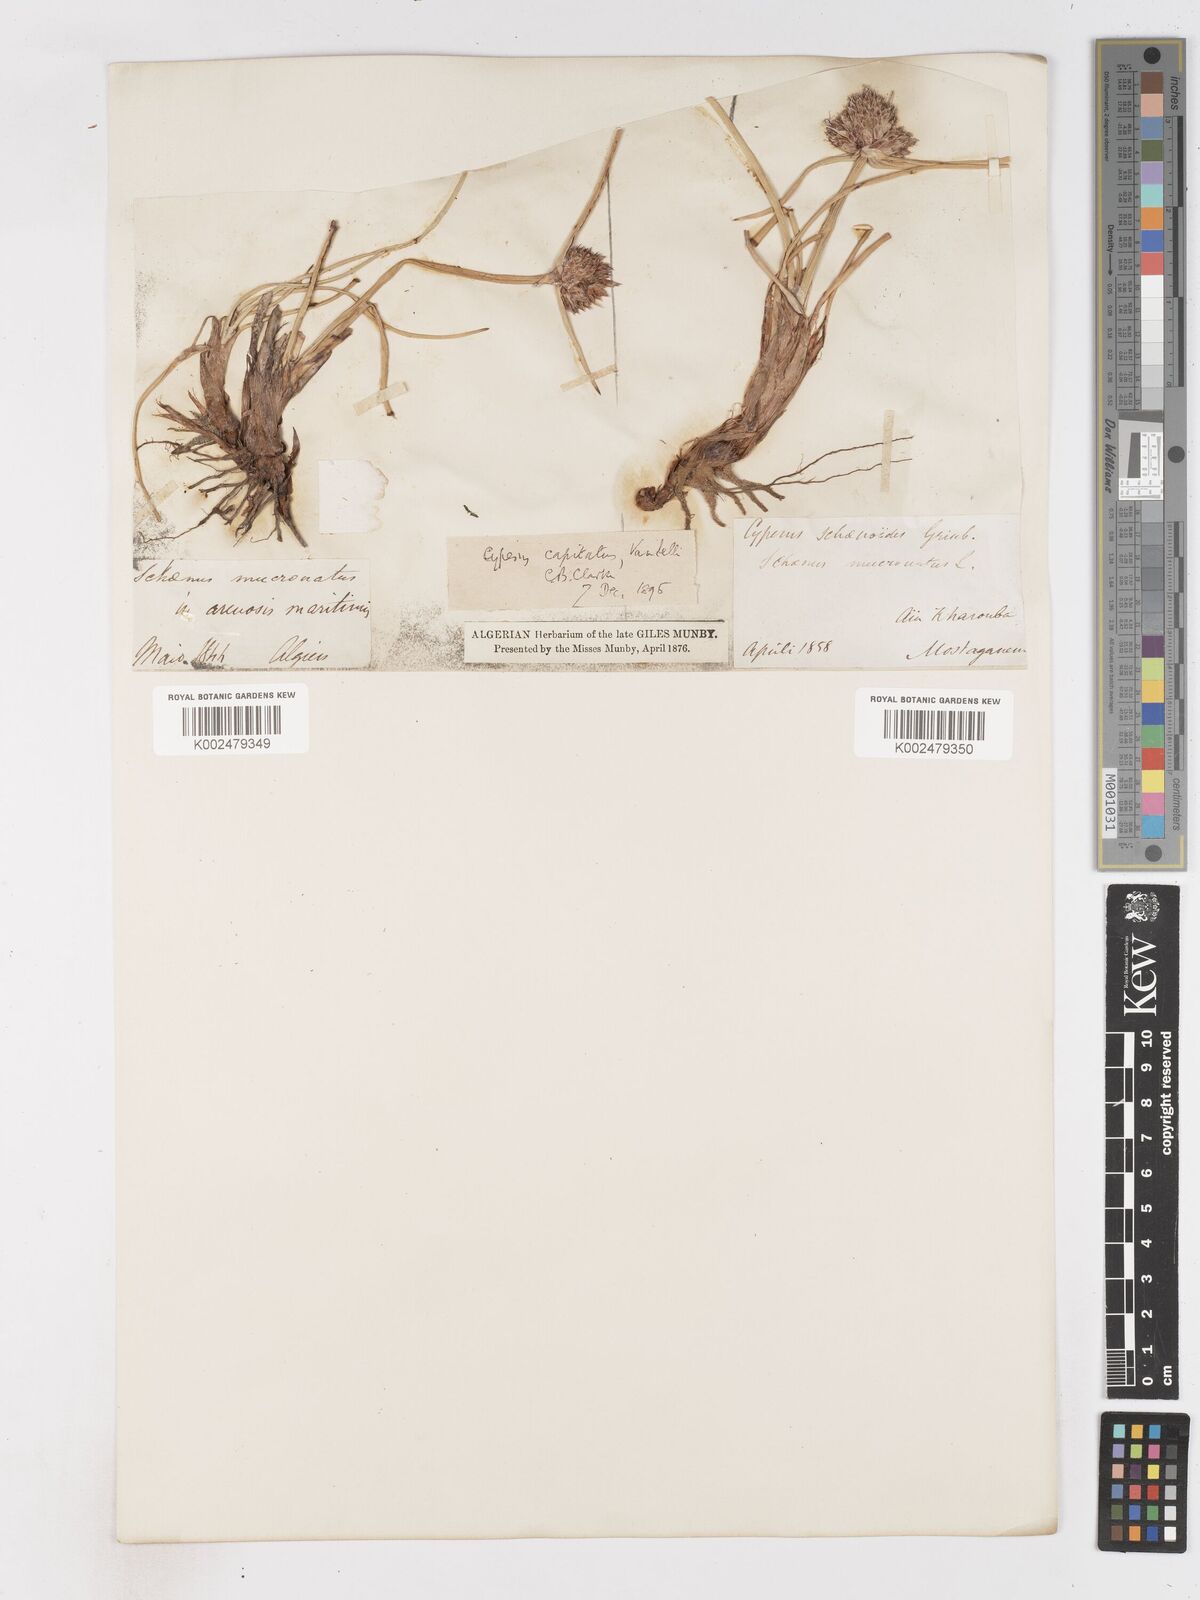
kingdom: Plantae
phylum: Tracheophyta
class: Liliopsida
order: Poales
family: Cyperaceae
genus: Cyperus
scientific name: Cyperus capitatus
